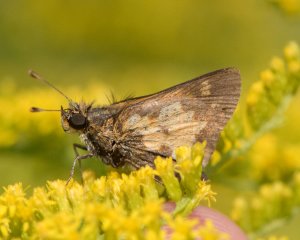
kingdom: Animalia
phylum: Arthropoda
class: Insecta
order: Lepidoptera
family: Hesperiidae
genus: Polites
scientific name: Polites coras
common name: Peck's Skipper
